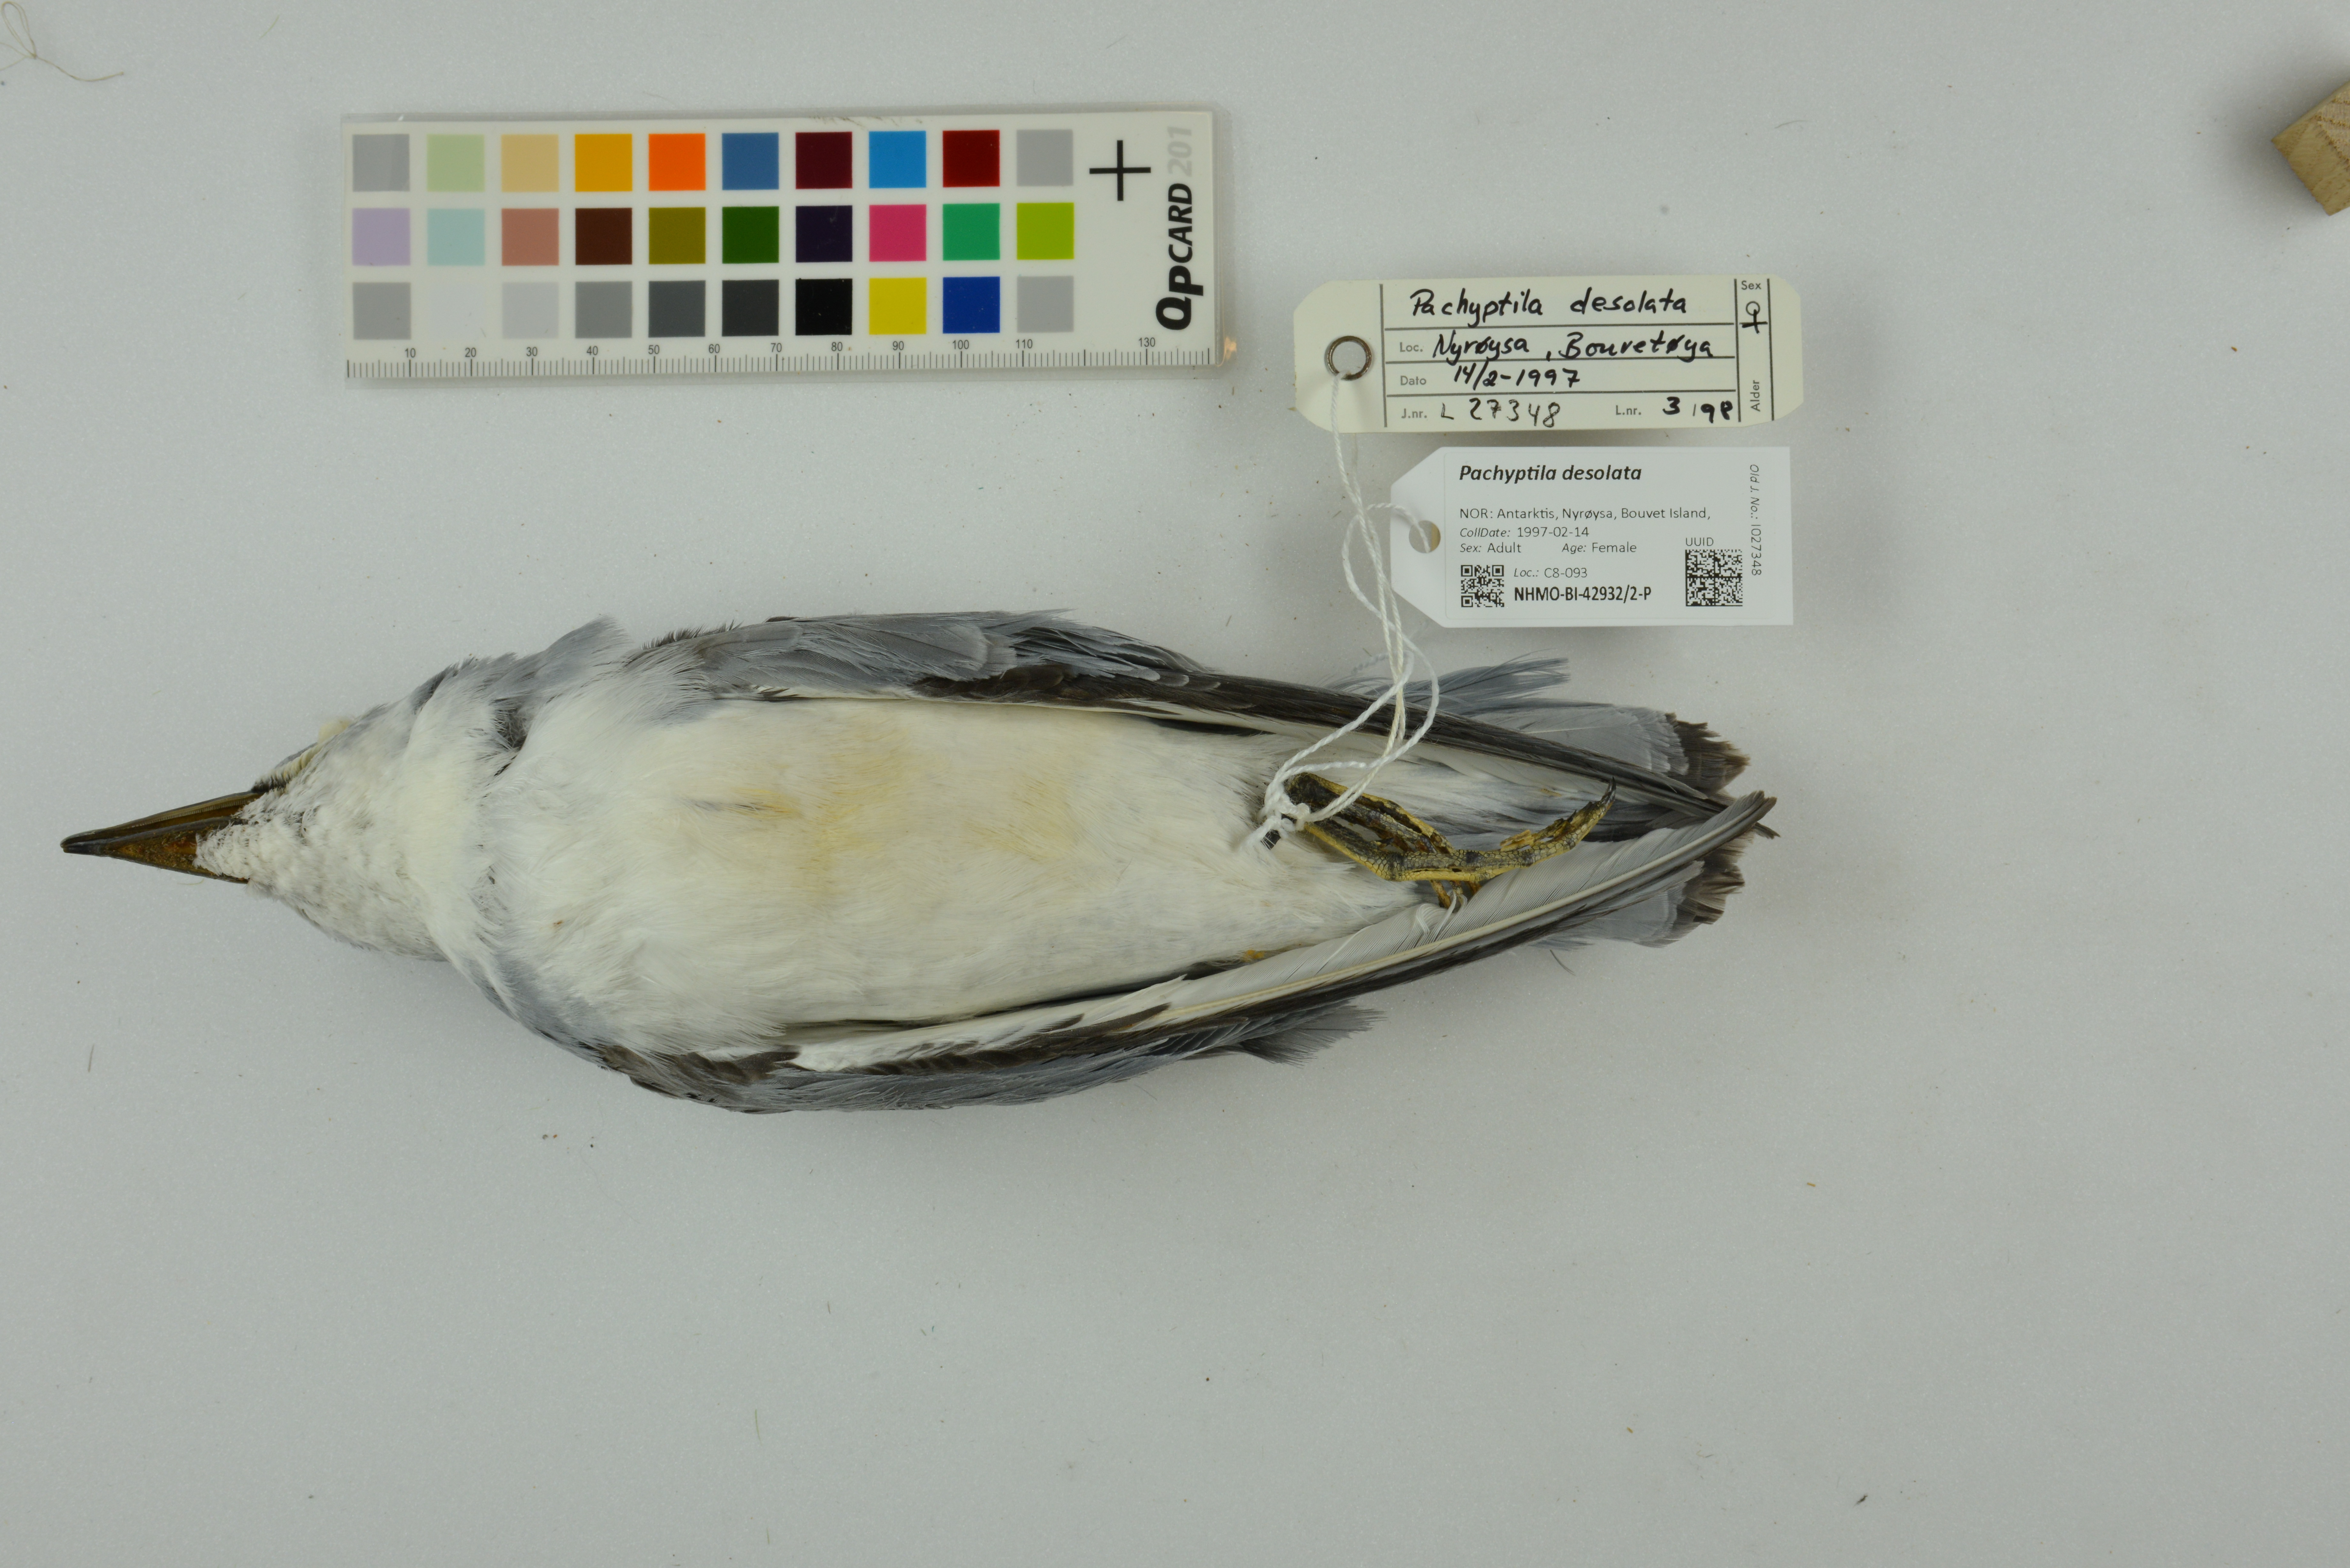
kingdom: Animalia
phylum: Chordata
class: Aves
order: Procellariiformes
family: Procellariidae
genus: Pachyptila
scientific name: Pachyptila desolata
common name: Antarctic prion
